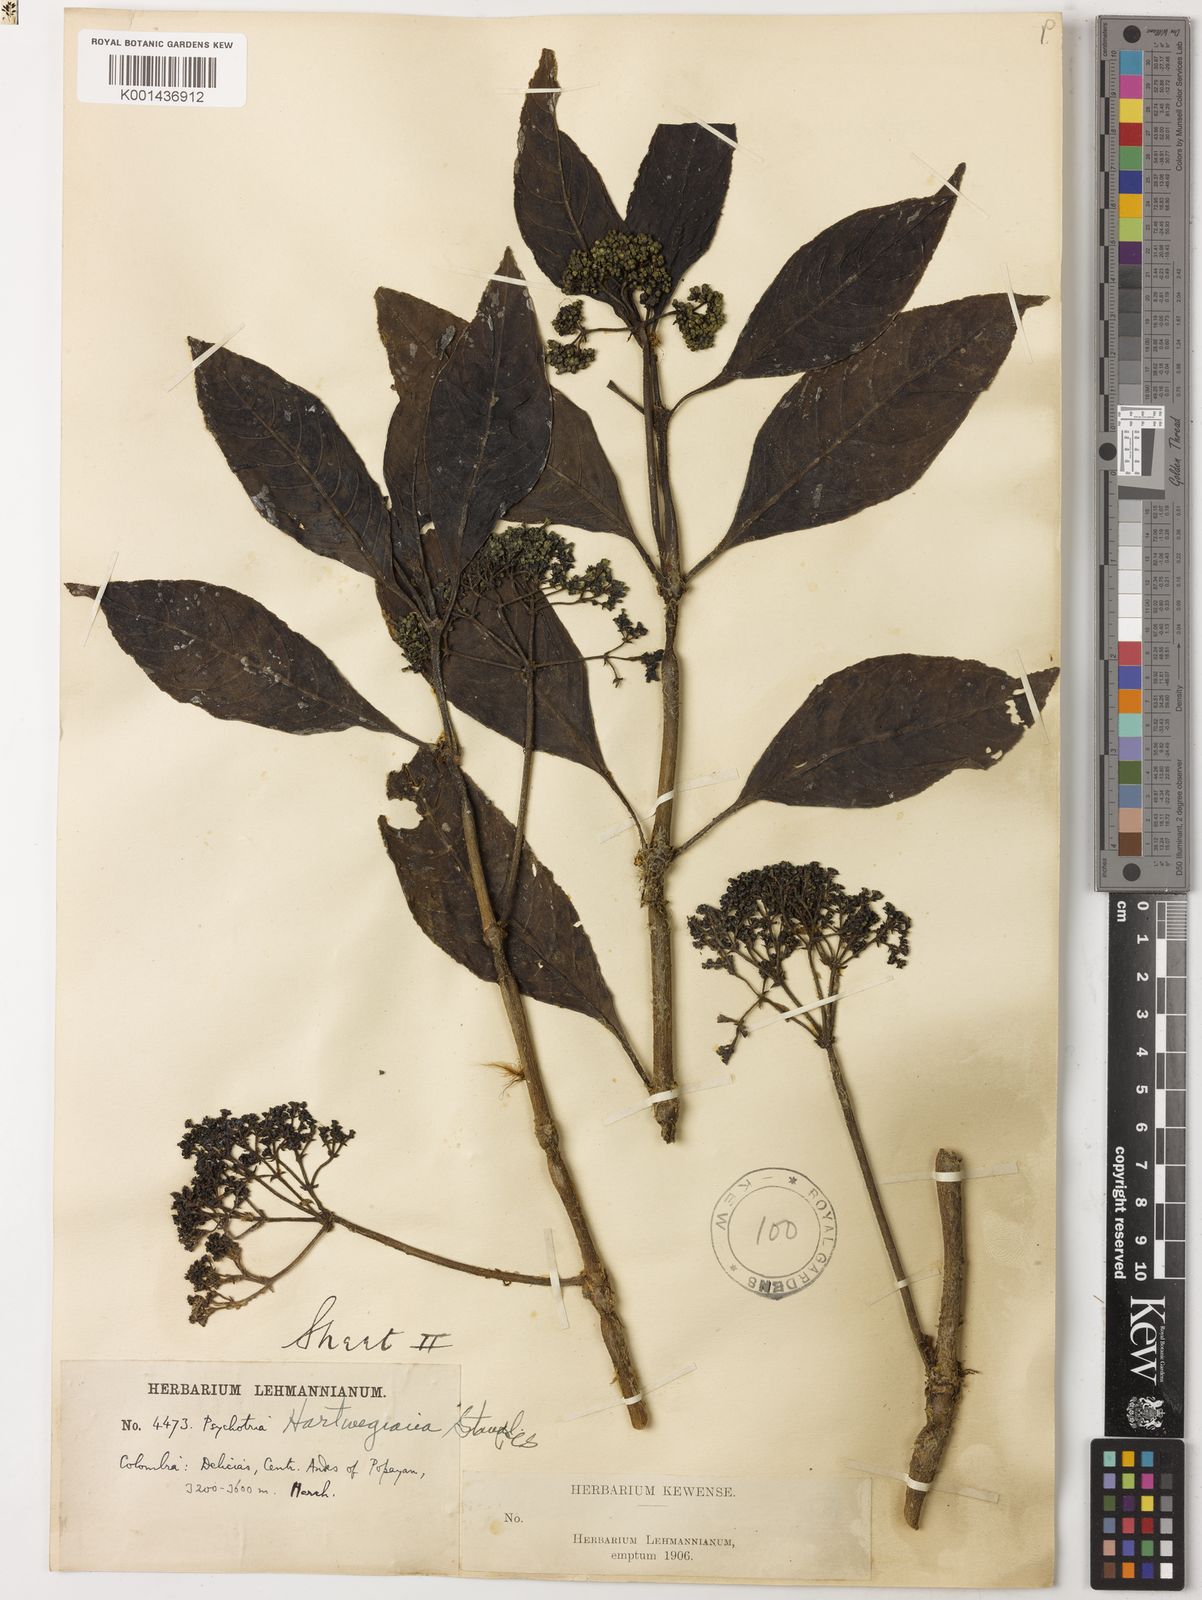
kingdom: Plantae
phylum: Tracheophyta
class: Magnoliopsida
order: Gentianales
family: Rubiaceae
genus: Notopleura
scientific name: Notopleura marginata
